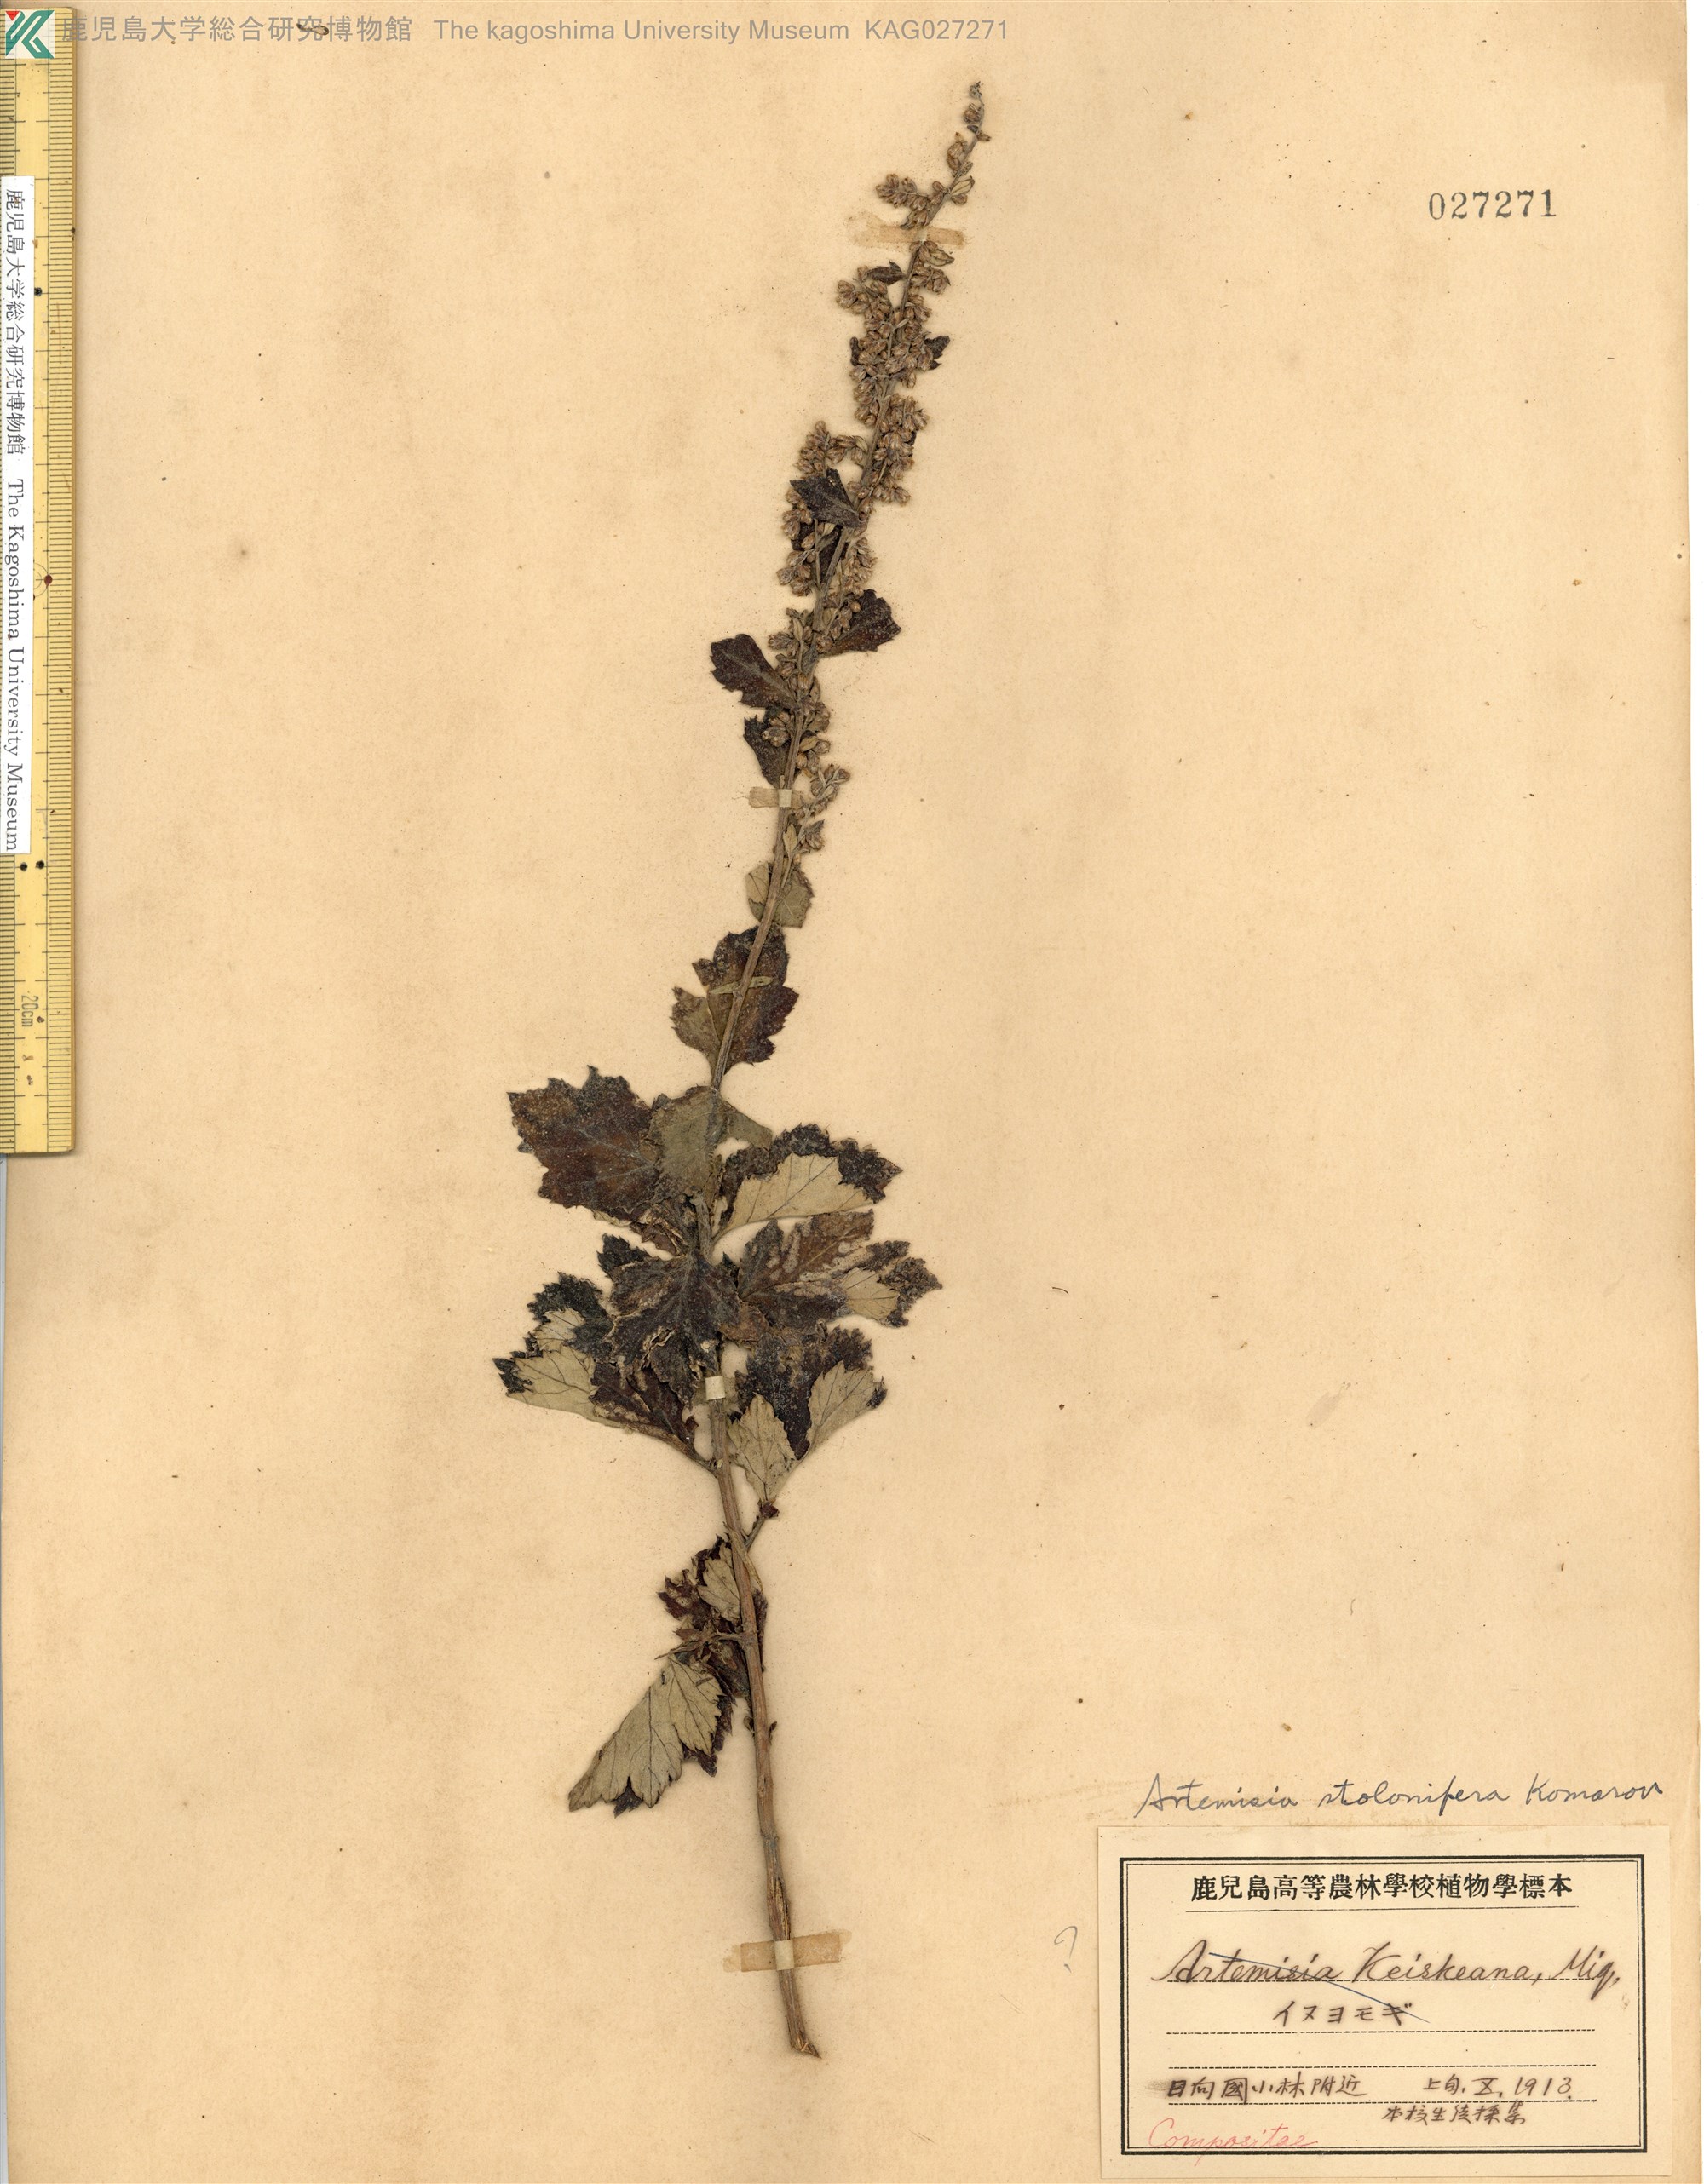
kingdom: Plantae
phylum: Tracheophyta
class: Magnoliopsida
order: Asterales
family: Asteraceae
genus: Artemisia
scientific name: Artemisia stolonifera
